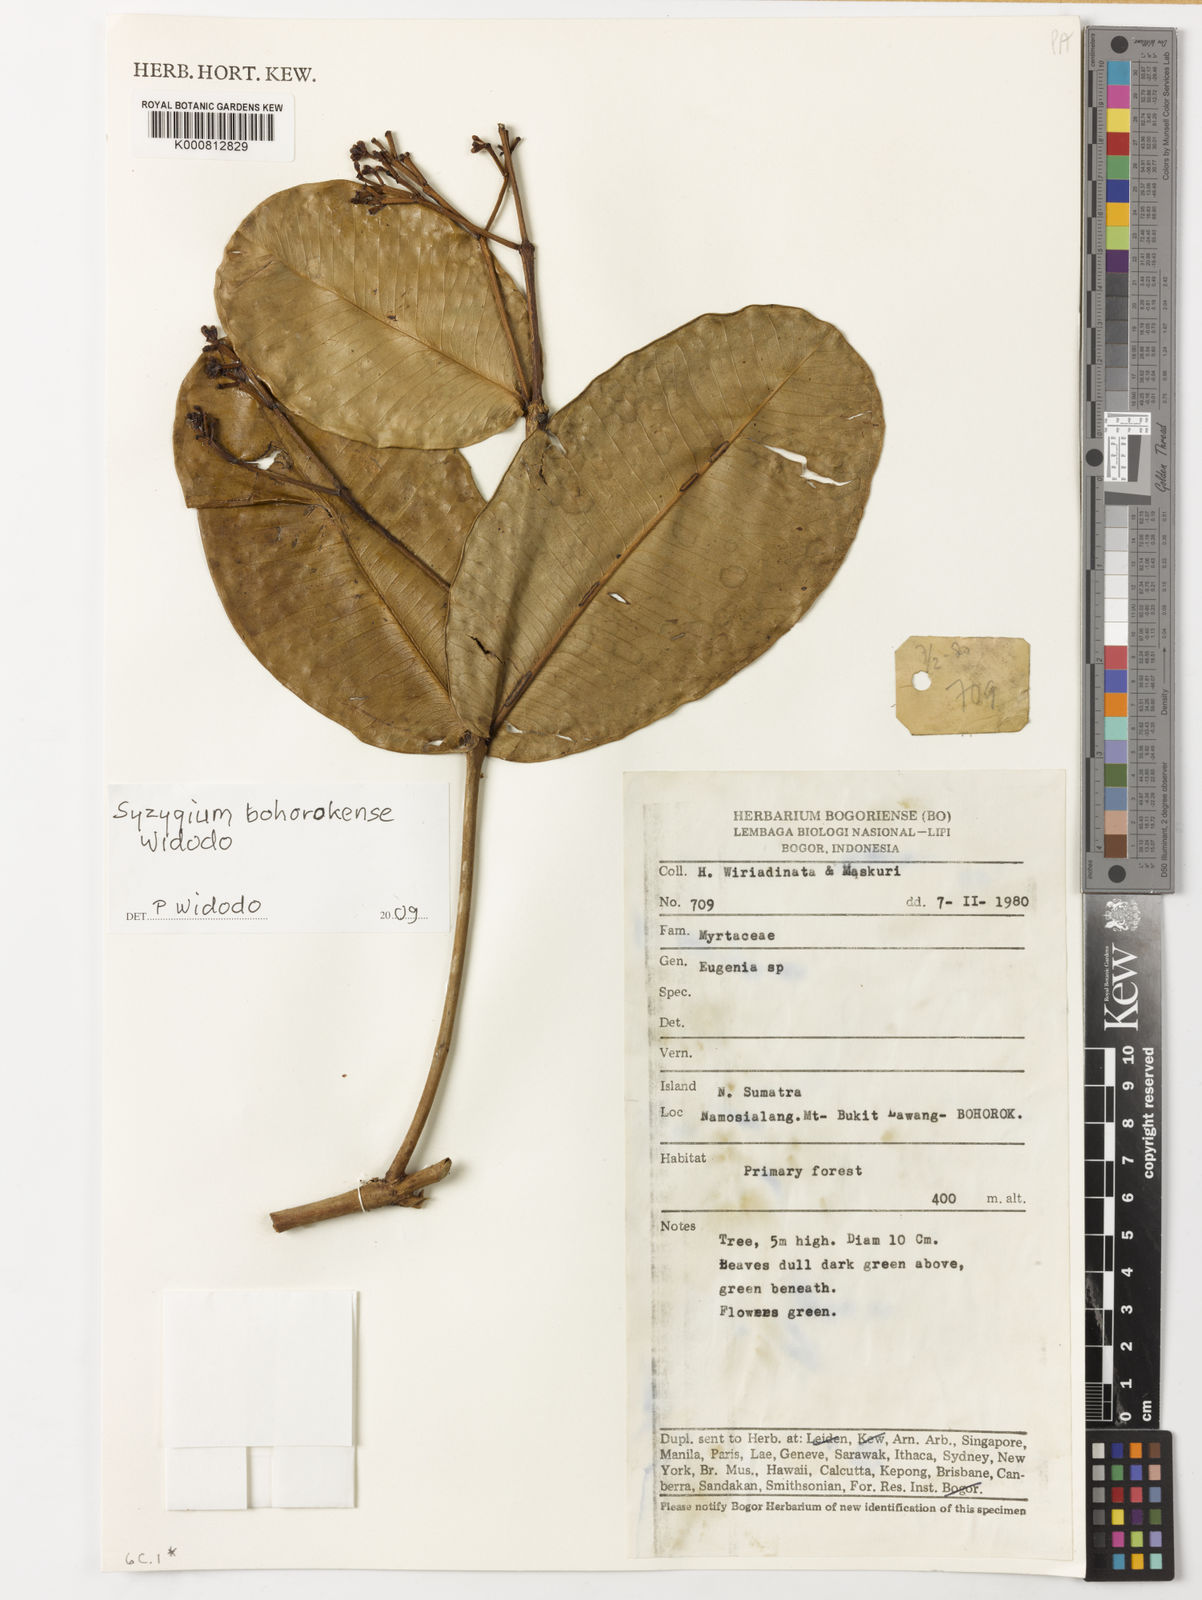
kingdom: Plantae
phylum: Tracheophyta
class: Magnoliopsida
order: Myrtales
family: Myrtaceae
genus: Syzygium
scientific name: Syzygium
